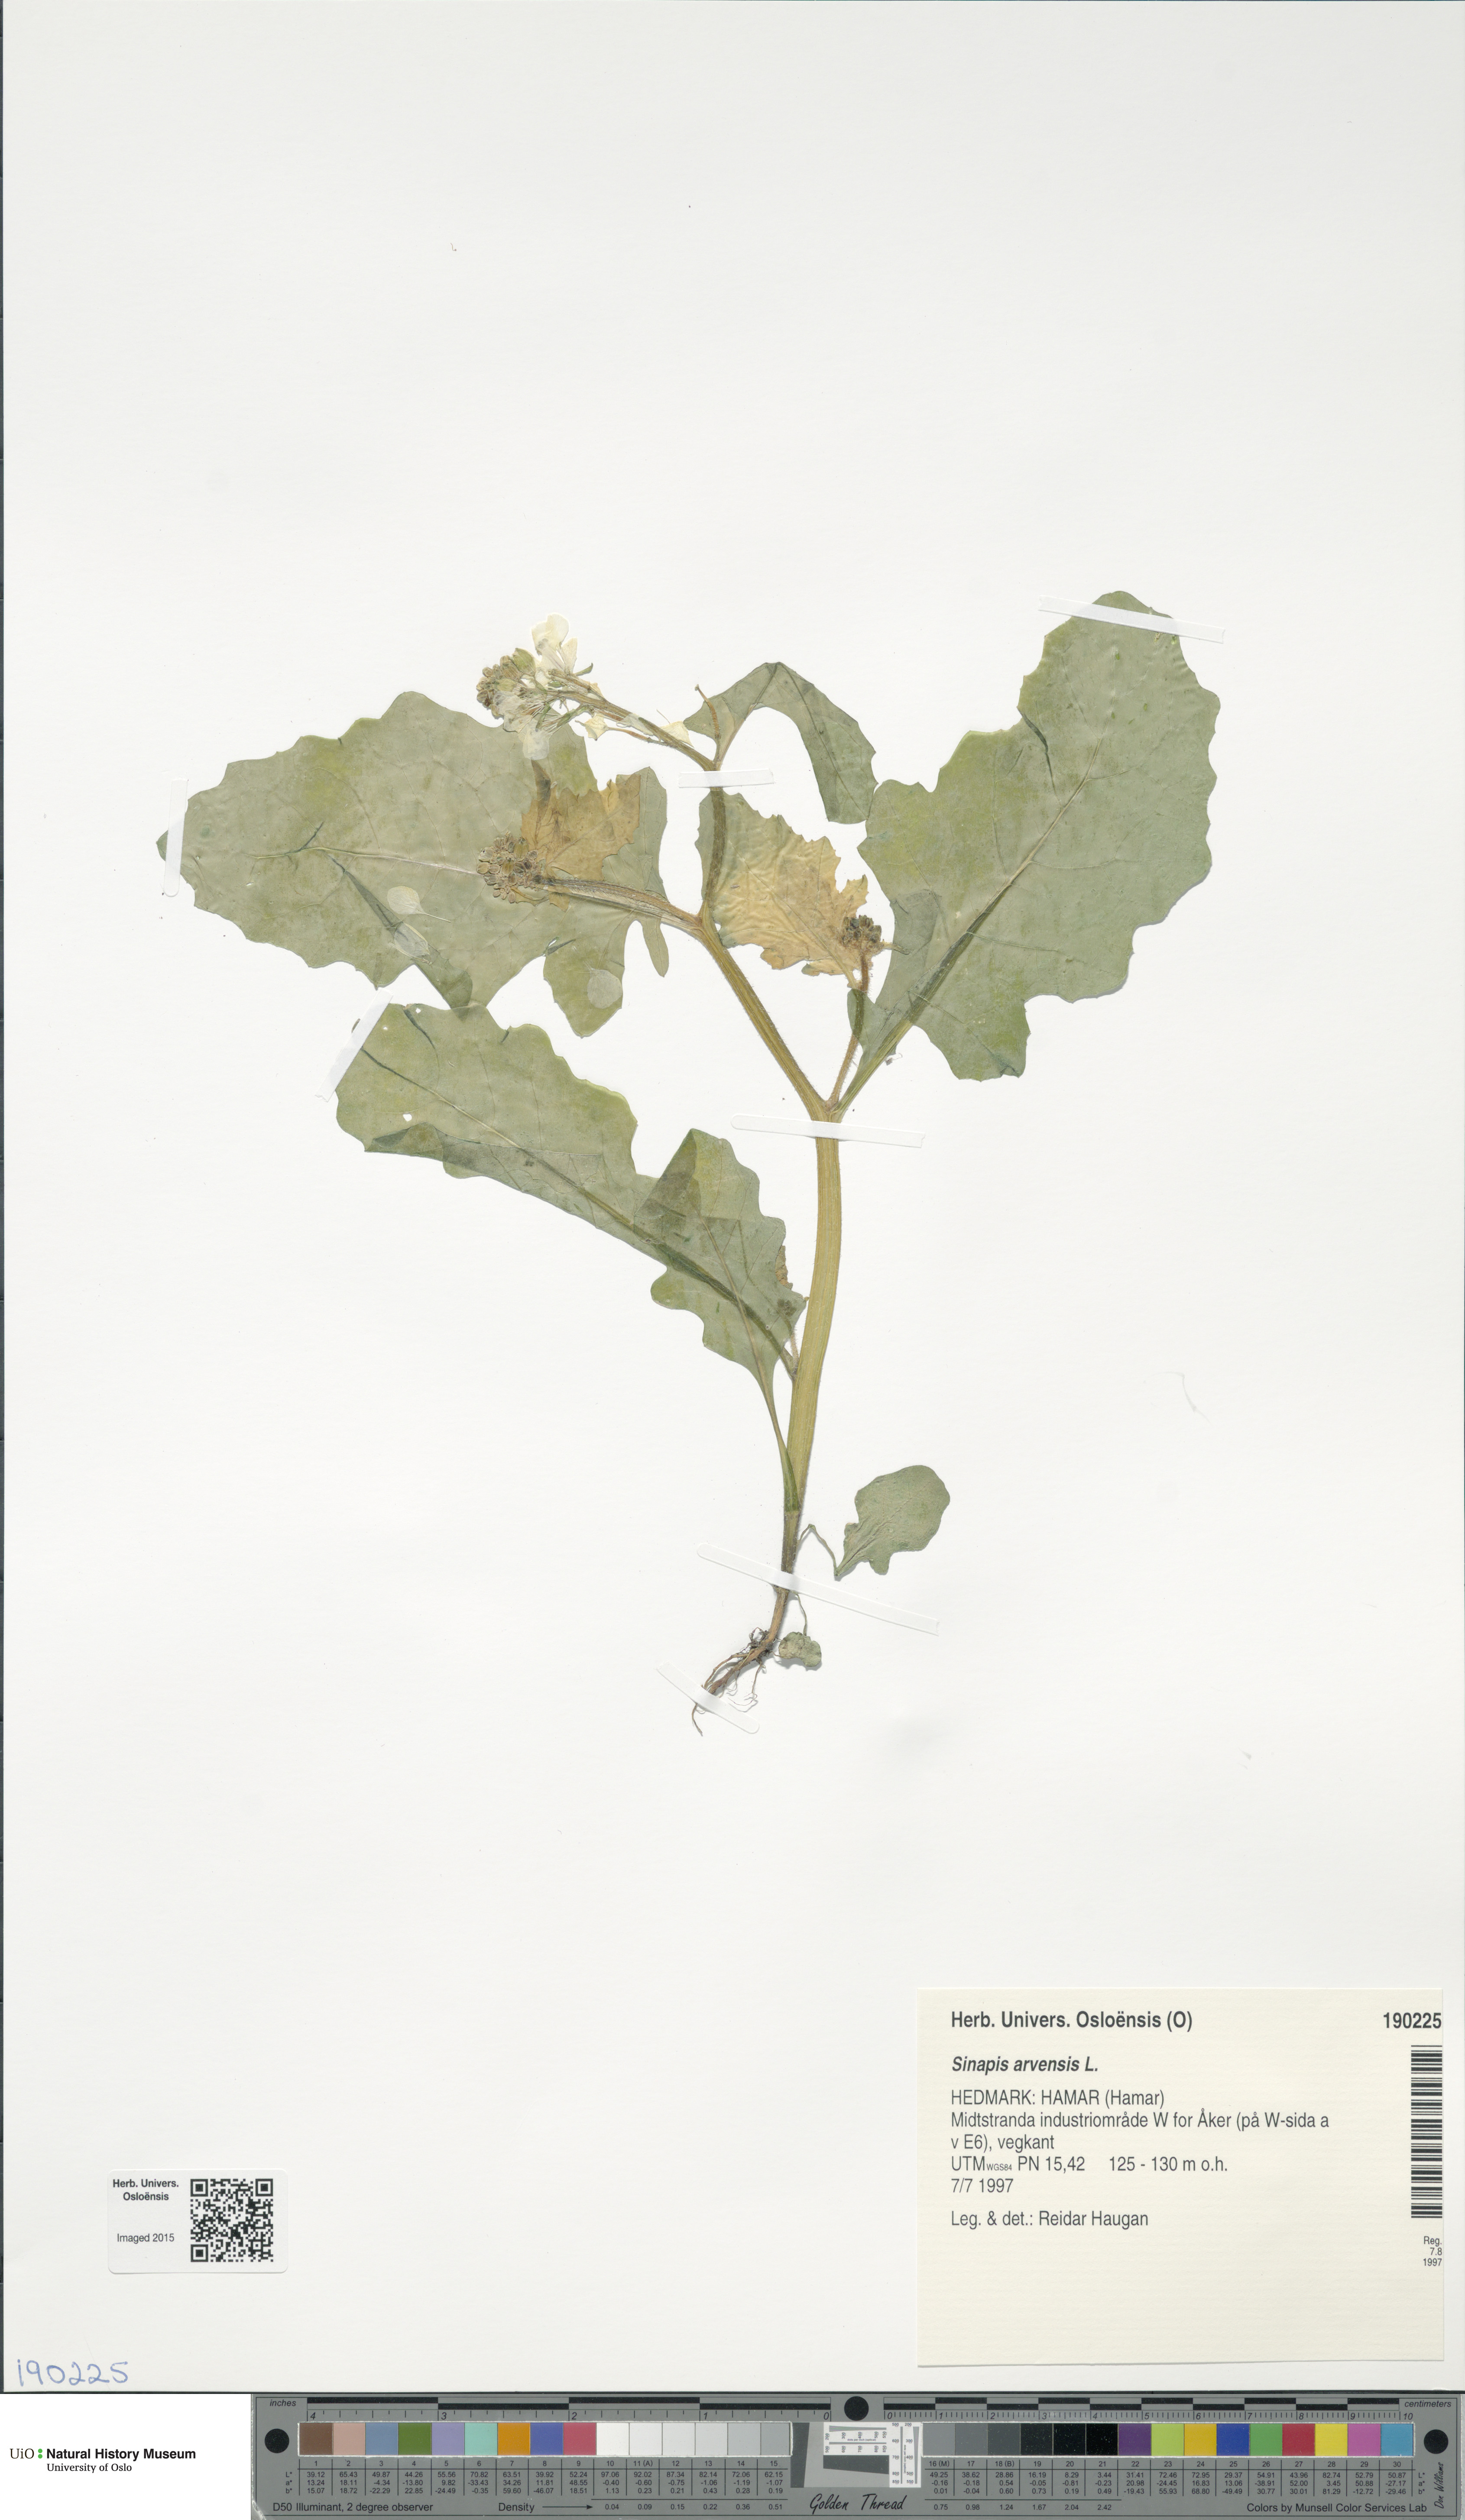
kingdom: Plantae
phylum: Tracheophyta
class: Magnoliopsida
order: Brassicales
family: Brassicaceae
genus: Sinapis
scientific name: Sinapis arvensis
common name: Charlock
